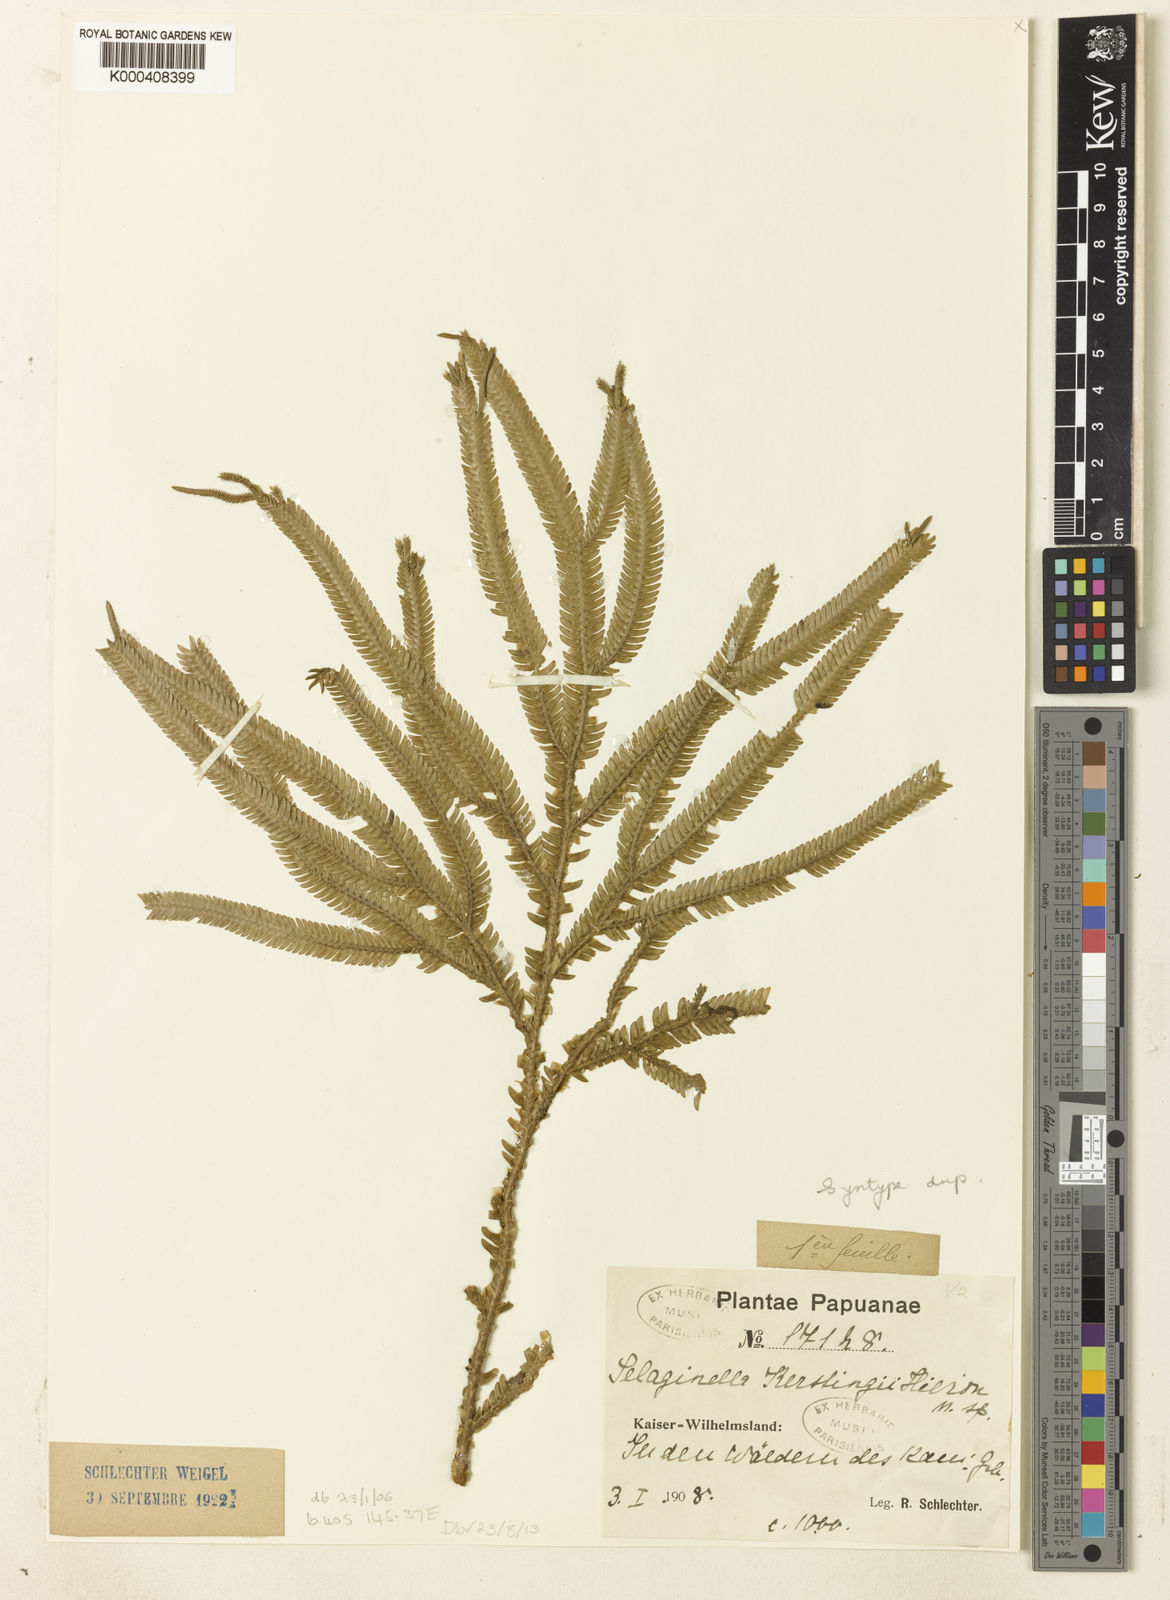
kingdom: Plantae
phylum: Tracheophyta
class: Lycopodiopsida
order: Selaginellales
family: Selaginellaceae
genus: Selaginella
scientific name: Selaginella kerstingii
